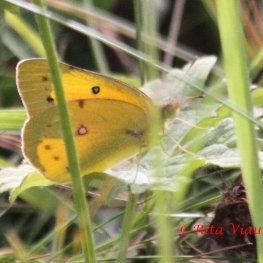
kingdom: Animalia
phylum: Arthropoda
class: Insecta
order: Lepidoptera
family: Pieridae
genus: Colias
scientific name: Colias eurytheme
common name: Orange Sulphur
